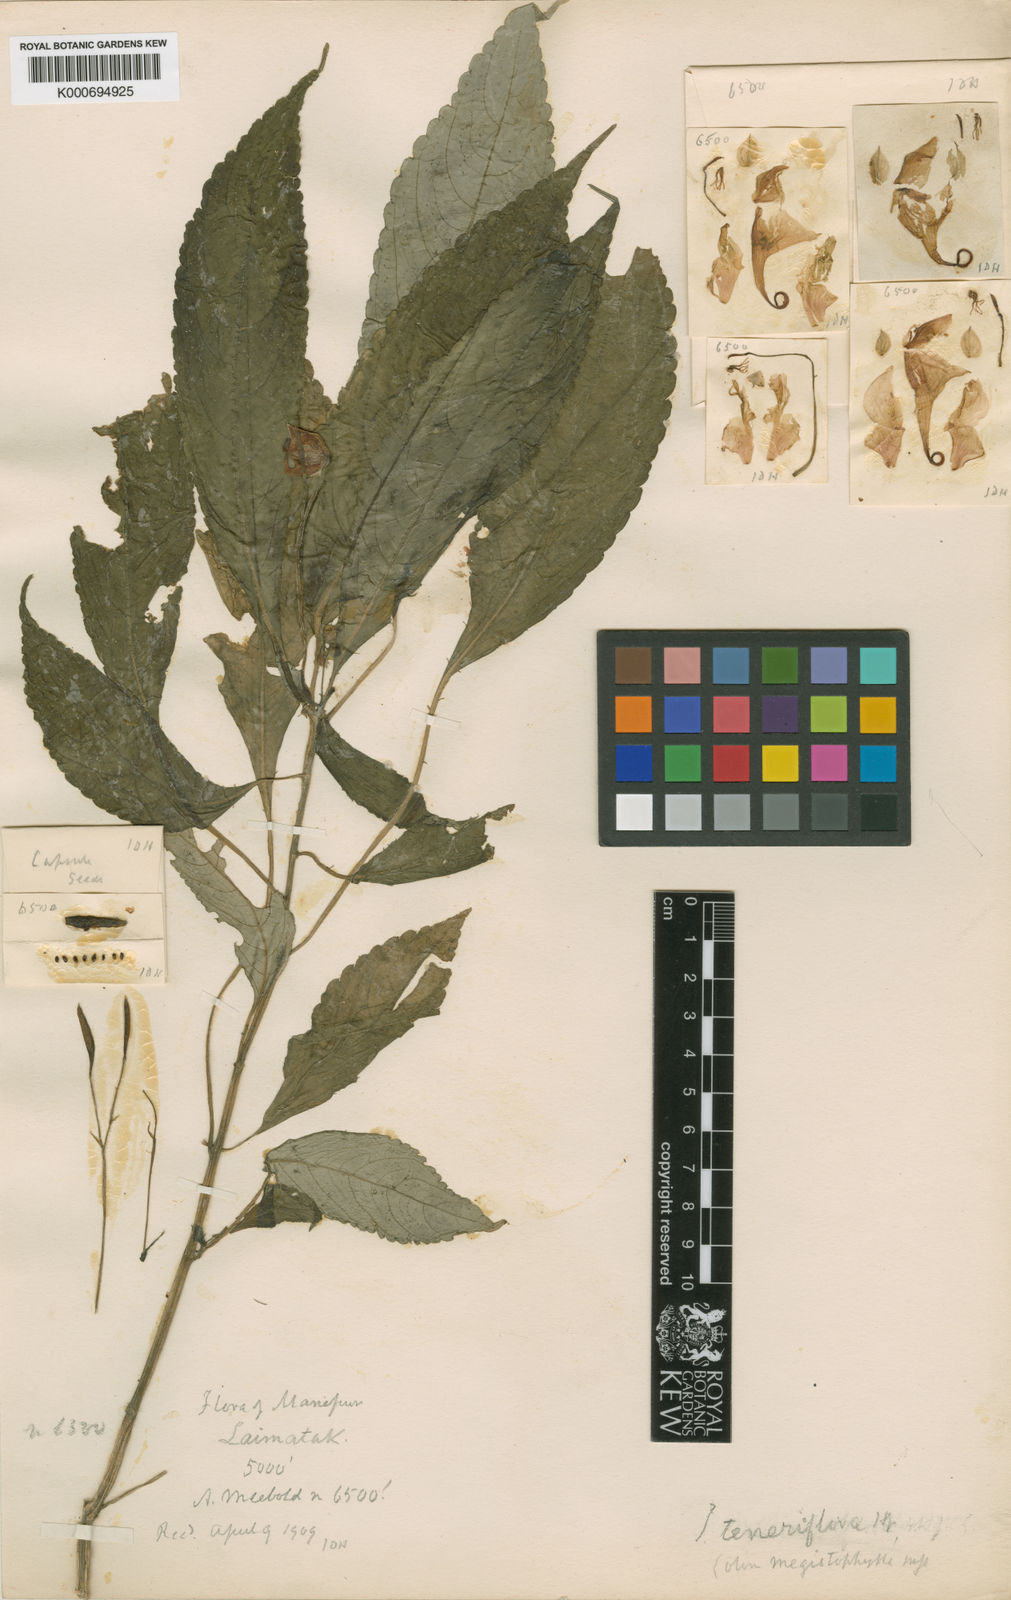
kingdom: Plantae
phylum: Tracheophyta
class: Magnoliopsida
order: Ericales
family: Balsaminaceae
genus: Impatiens
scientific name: Impatiens teneriflora
